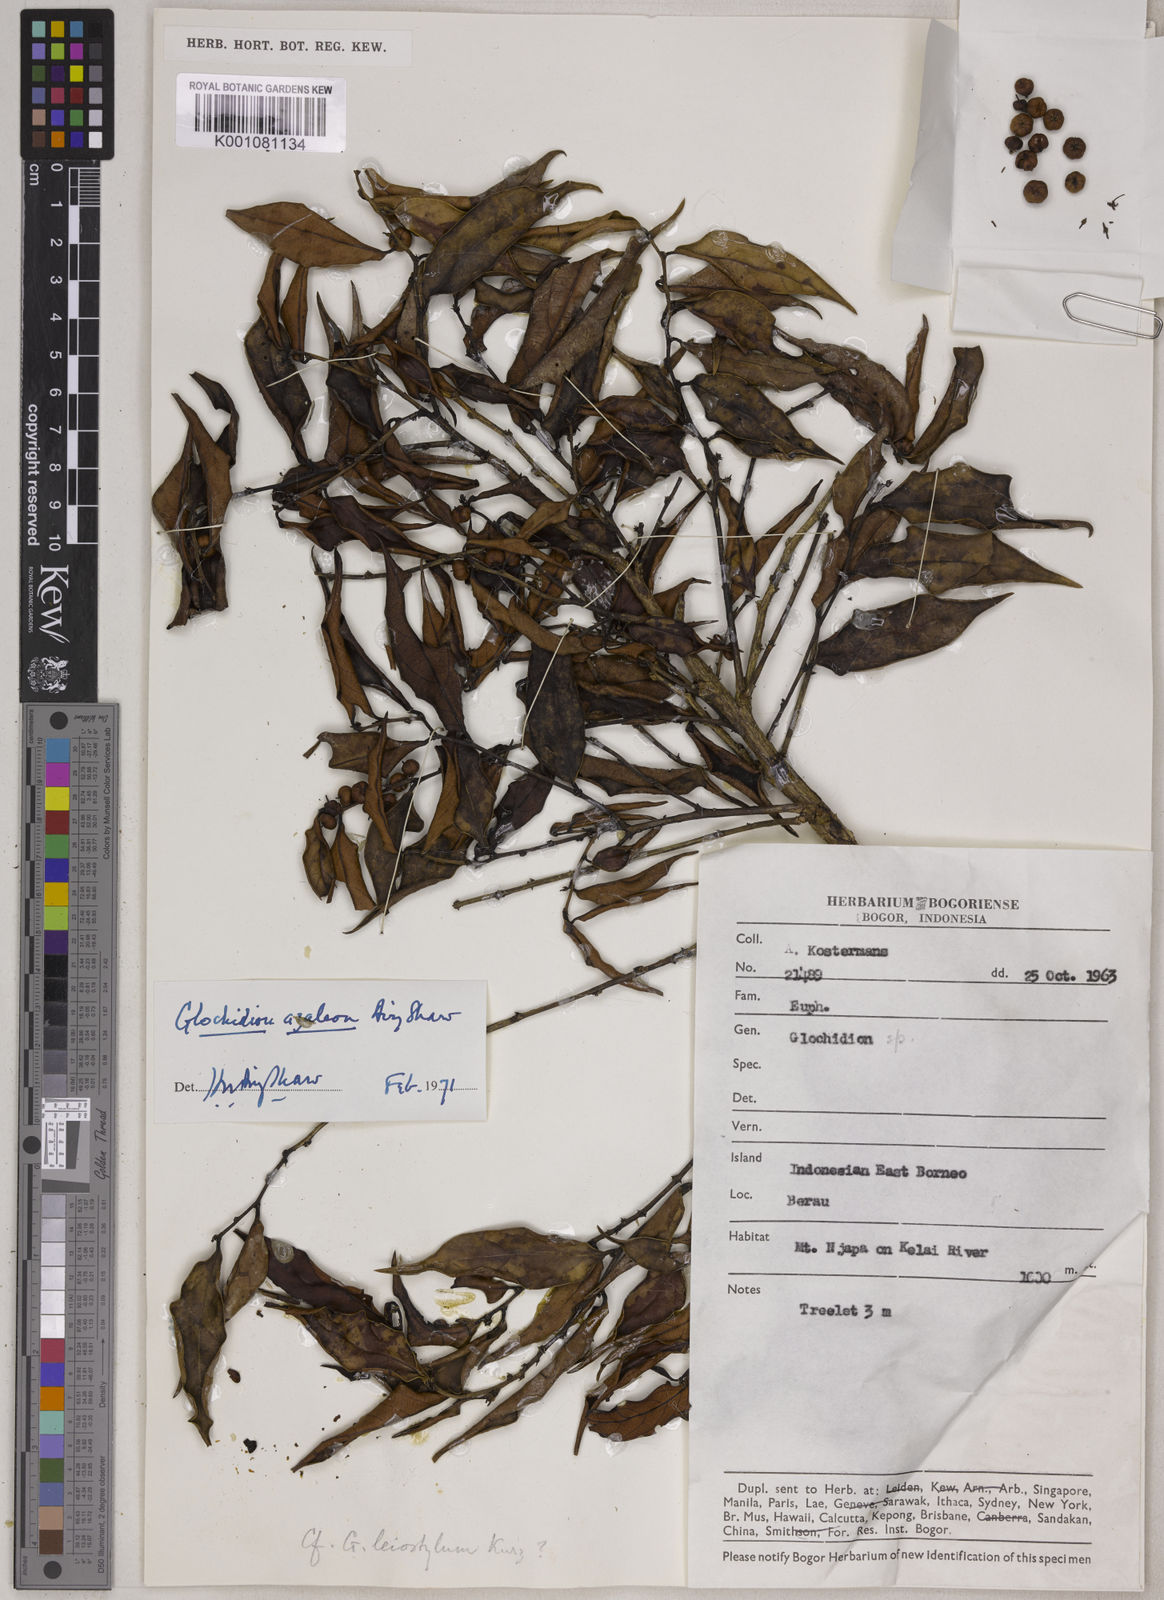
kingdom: Plantae
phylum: Tracheophyta
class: Magnoliopsida
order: Malpighiales
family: Phyllanthaceae
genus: Glochidion
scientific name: Glochidion azaleon
